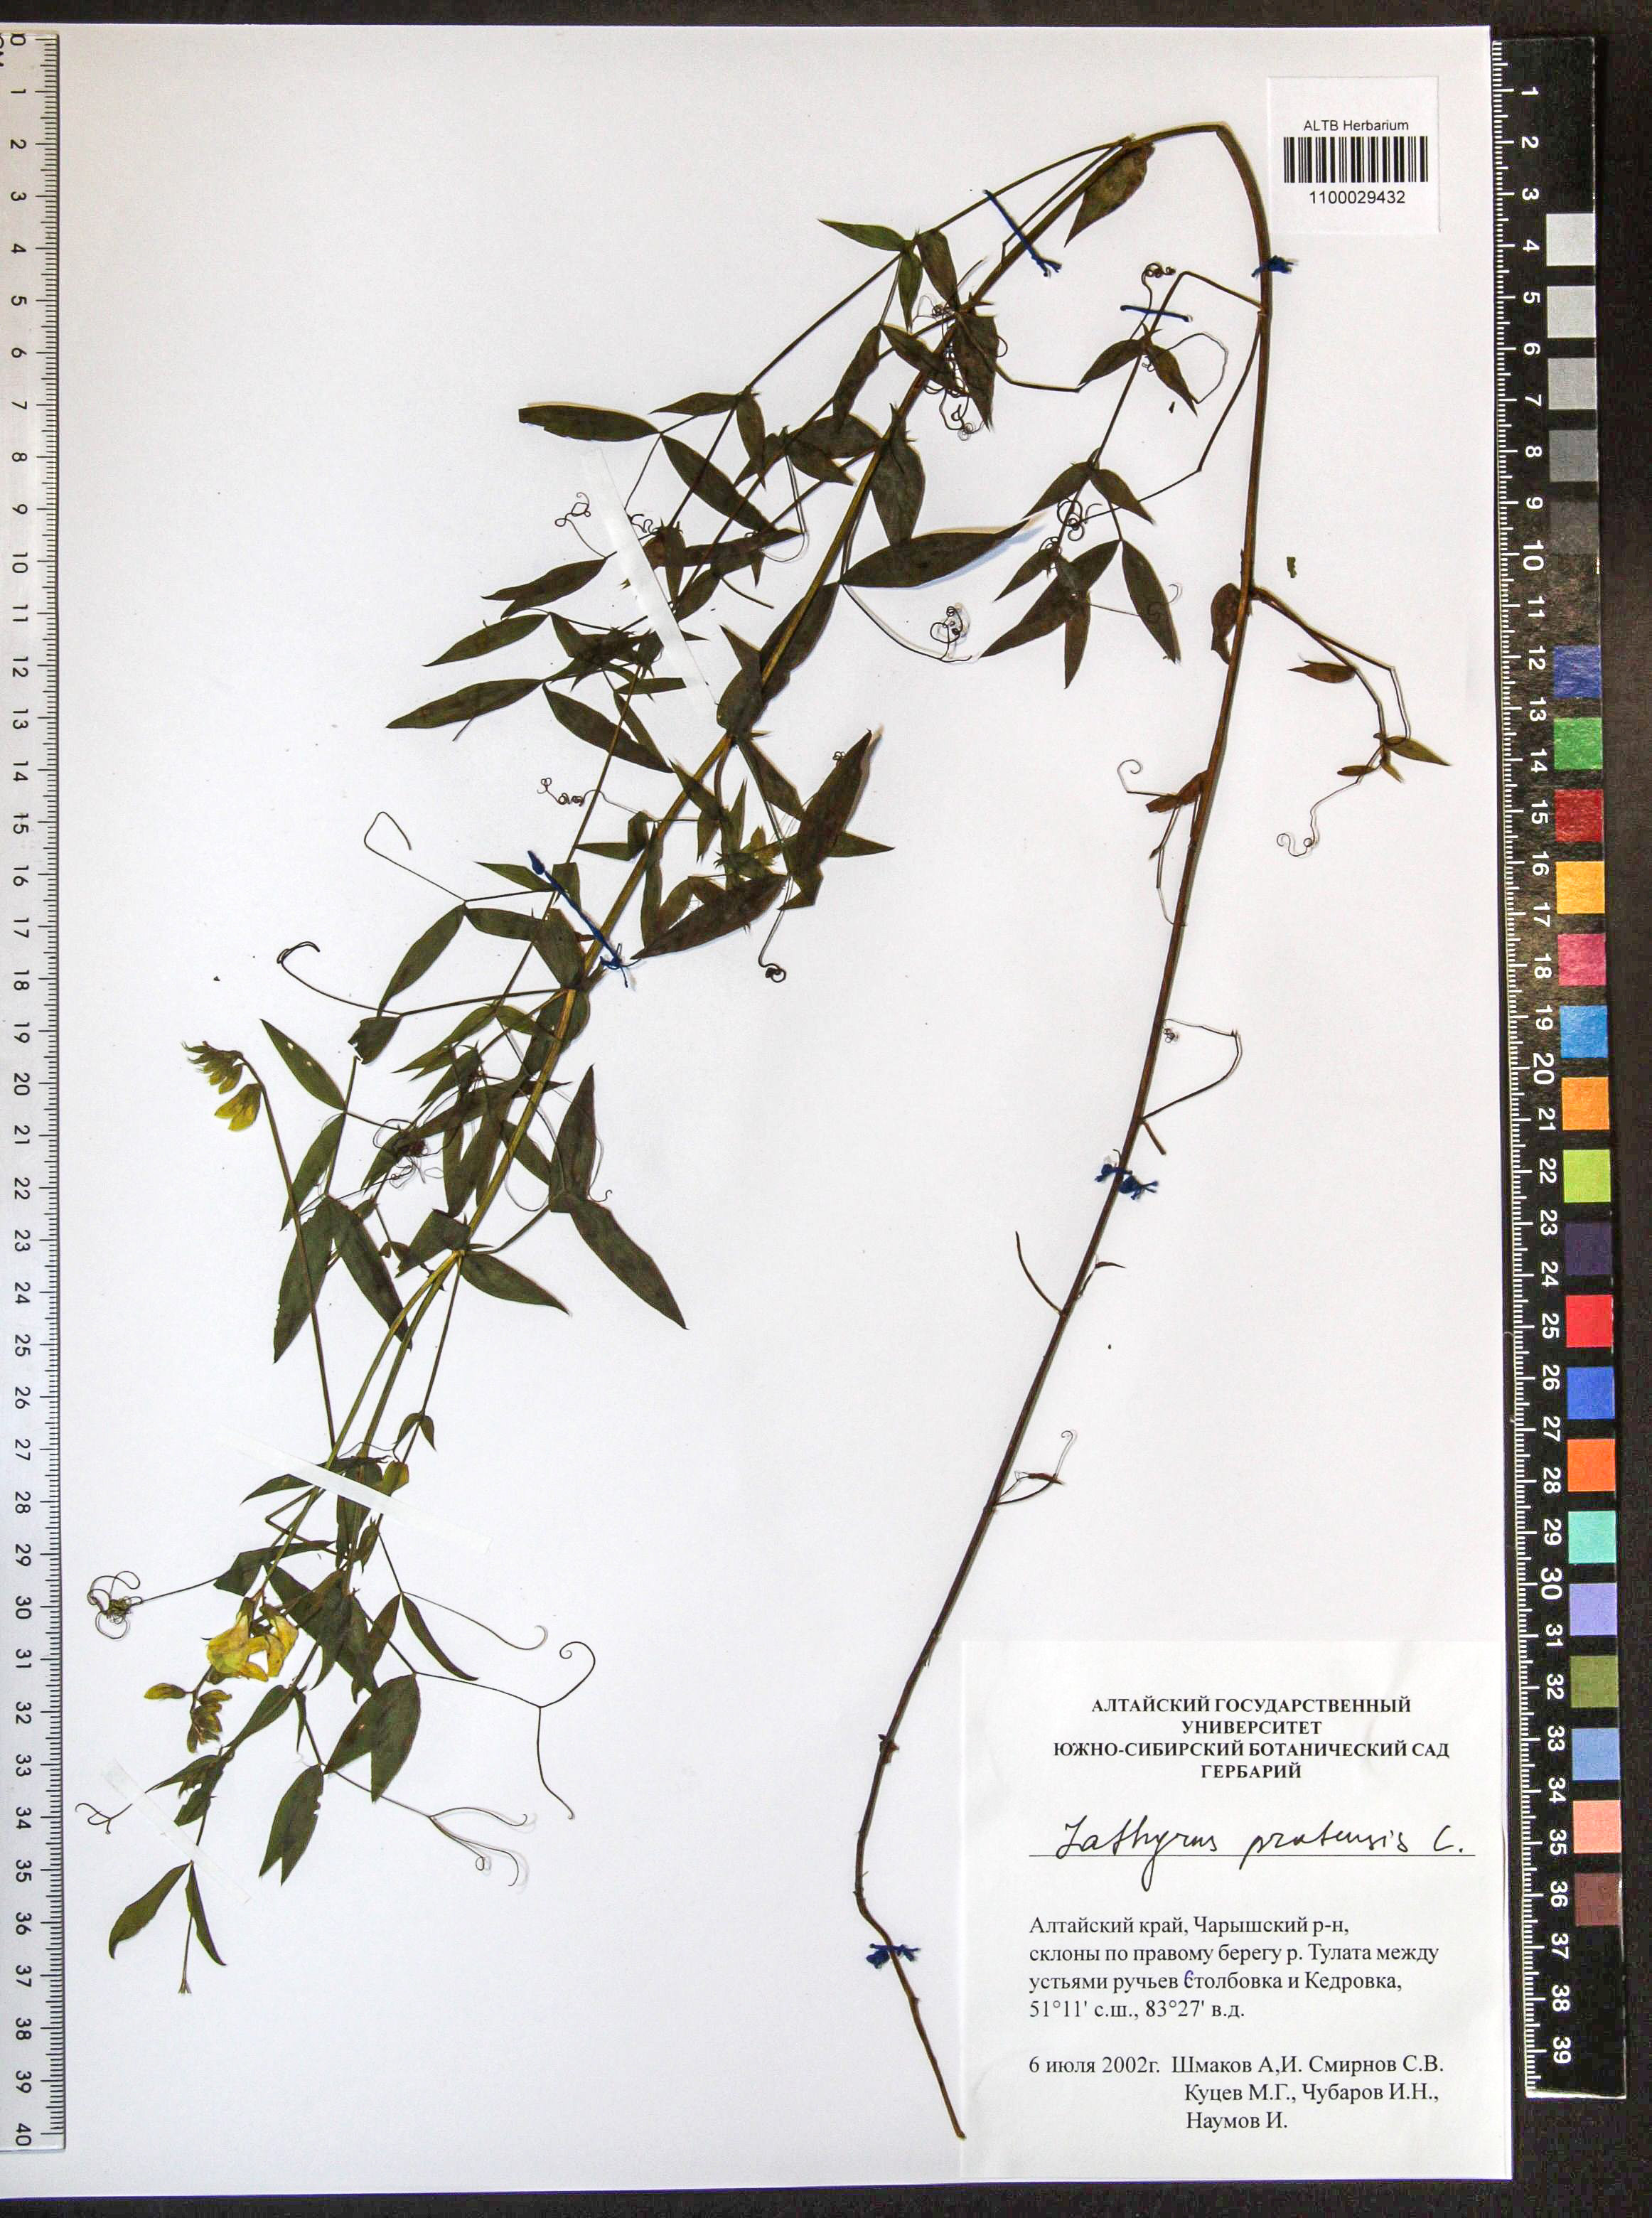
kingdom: Plantae
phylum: Tracheophyta
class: Magnoliopsida
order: Fabales
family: Fabaceae
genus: Lathyrus
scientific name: Lathyrus pratensis
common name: Meadow vetchling
